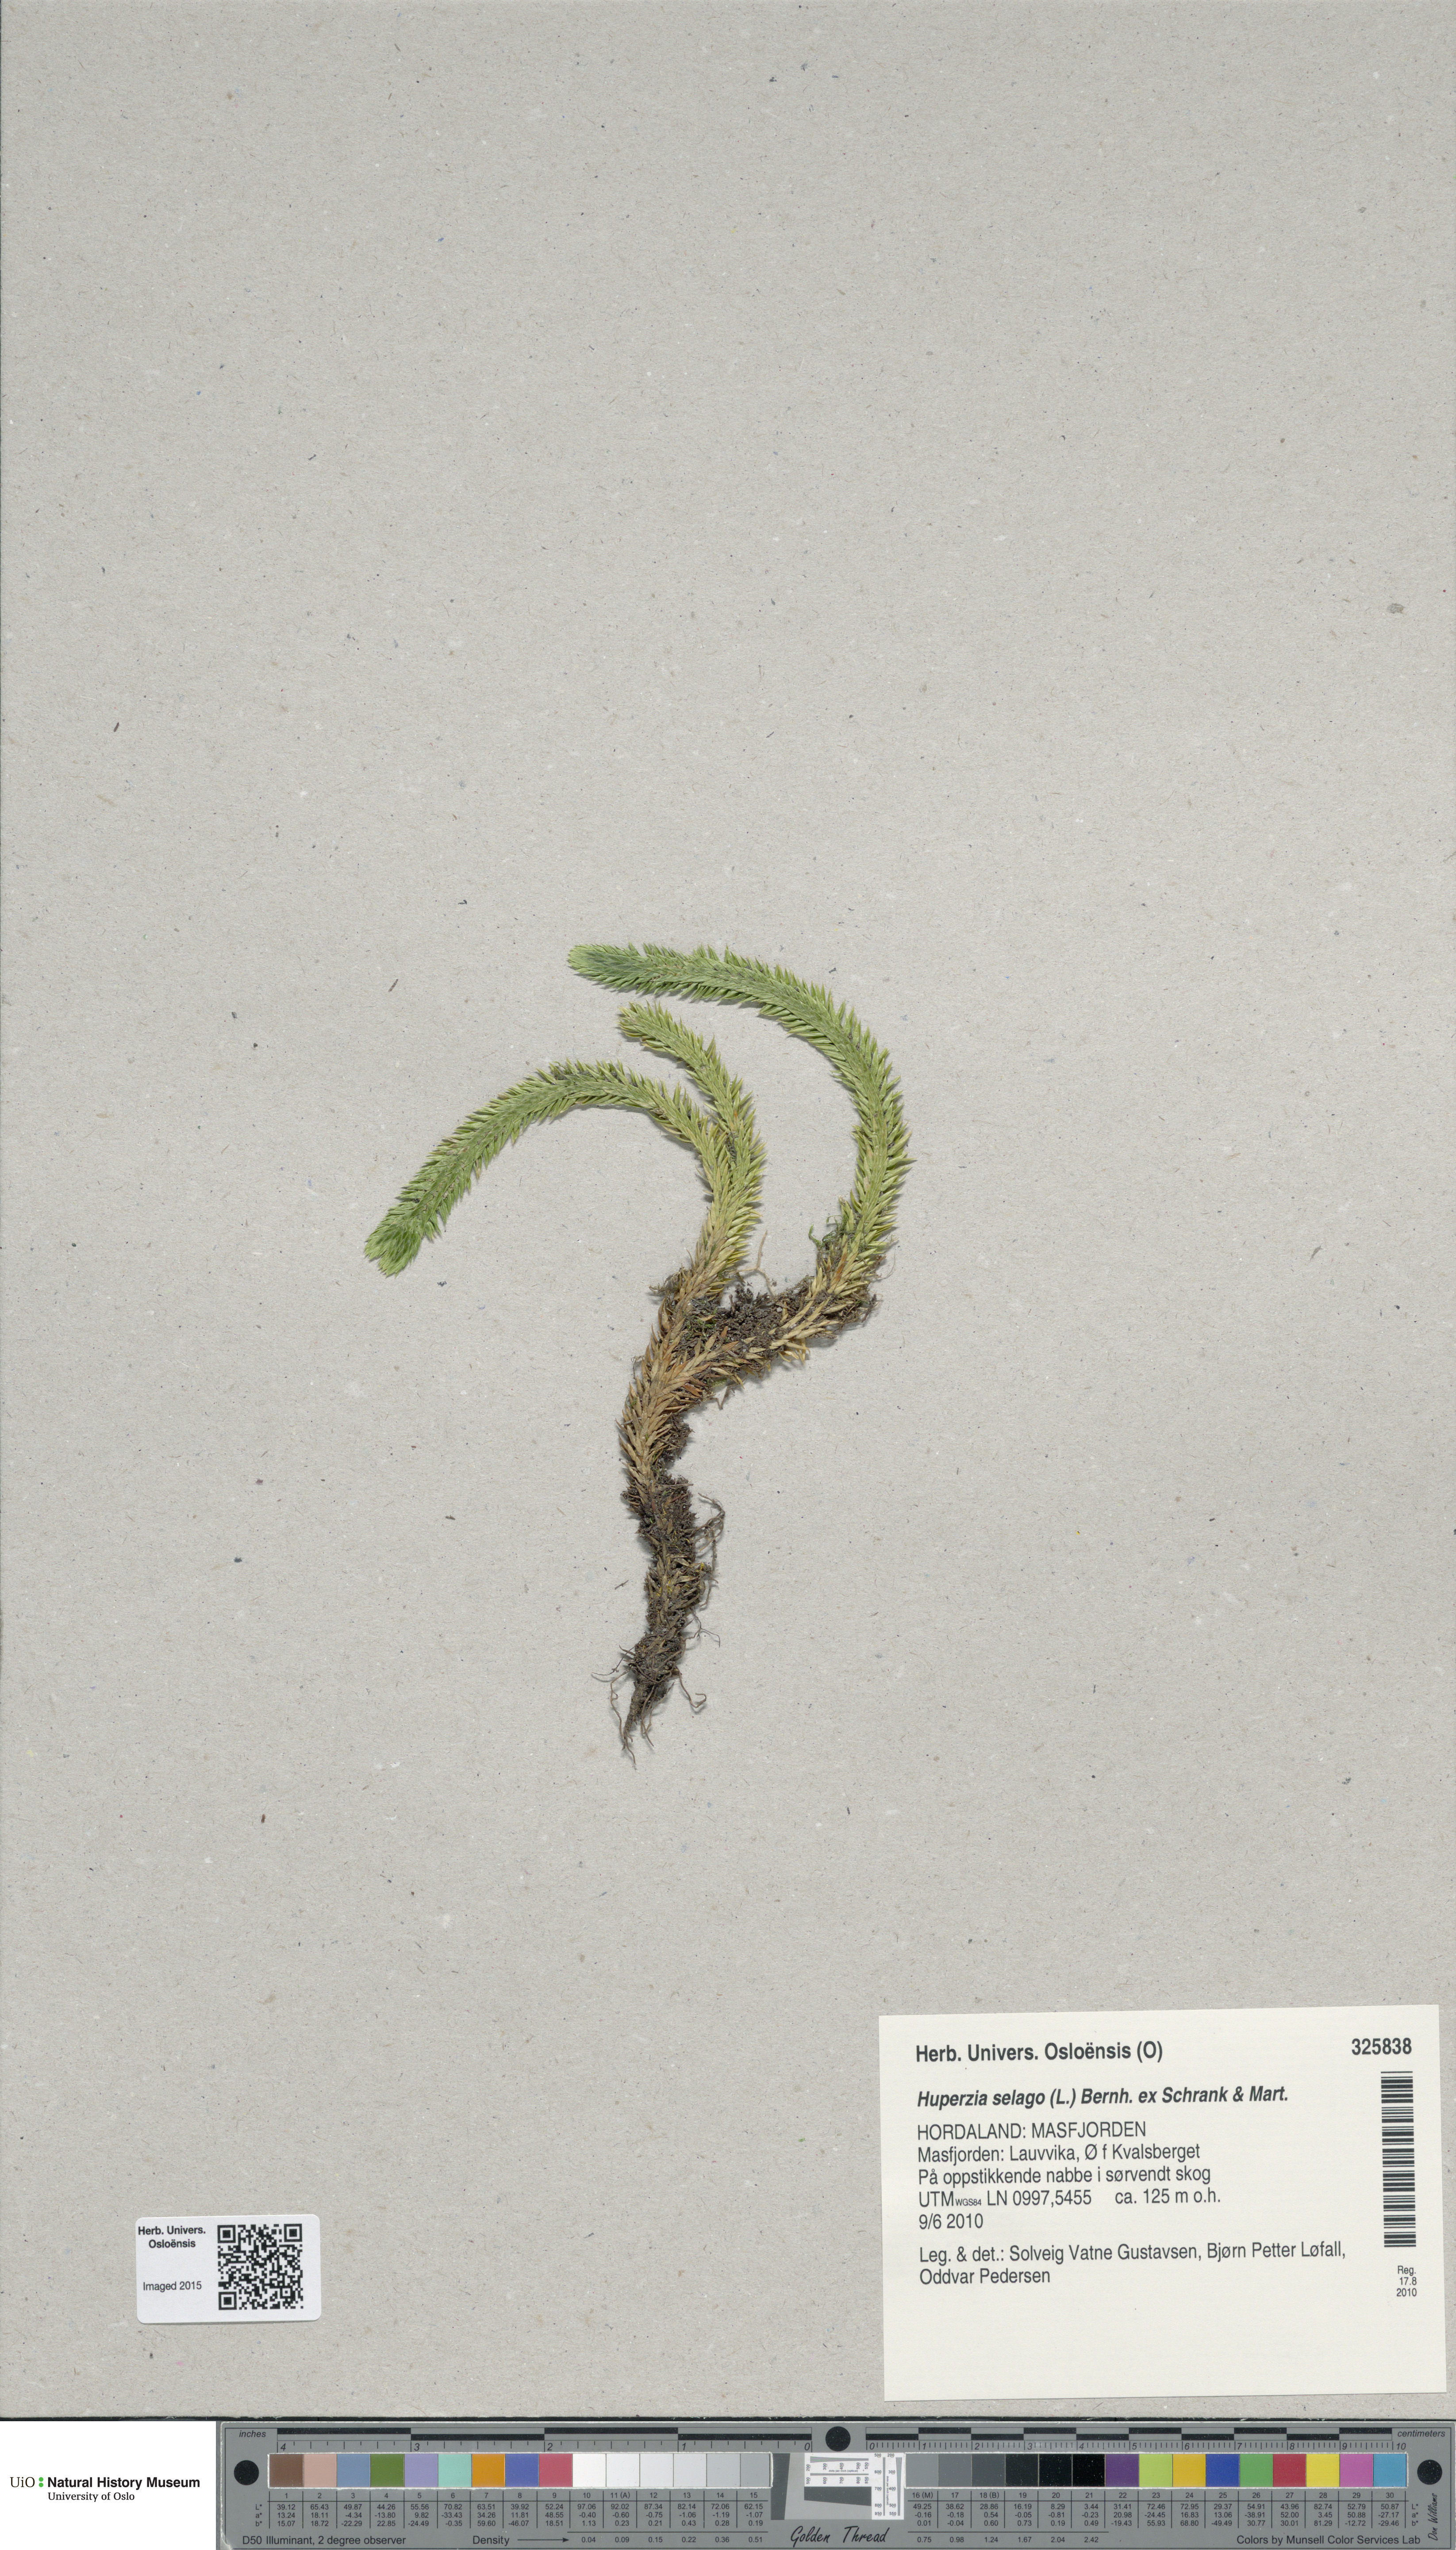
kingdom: Plantae
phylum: Tracheophyta
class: Lycopodiopsida
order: Lycopodiales
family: Lycopodiaceae
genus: Huperzia
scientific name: Huperzia selago
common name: Northern firmoss
